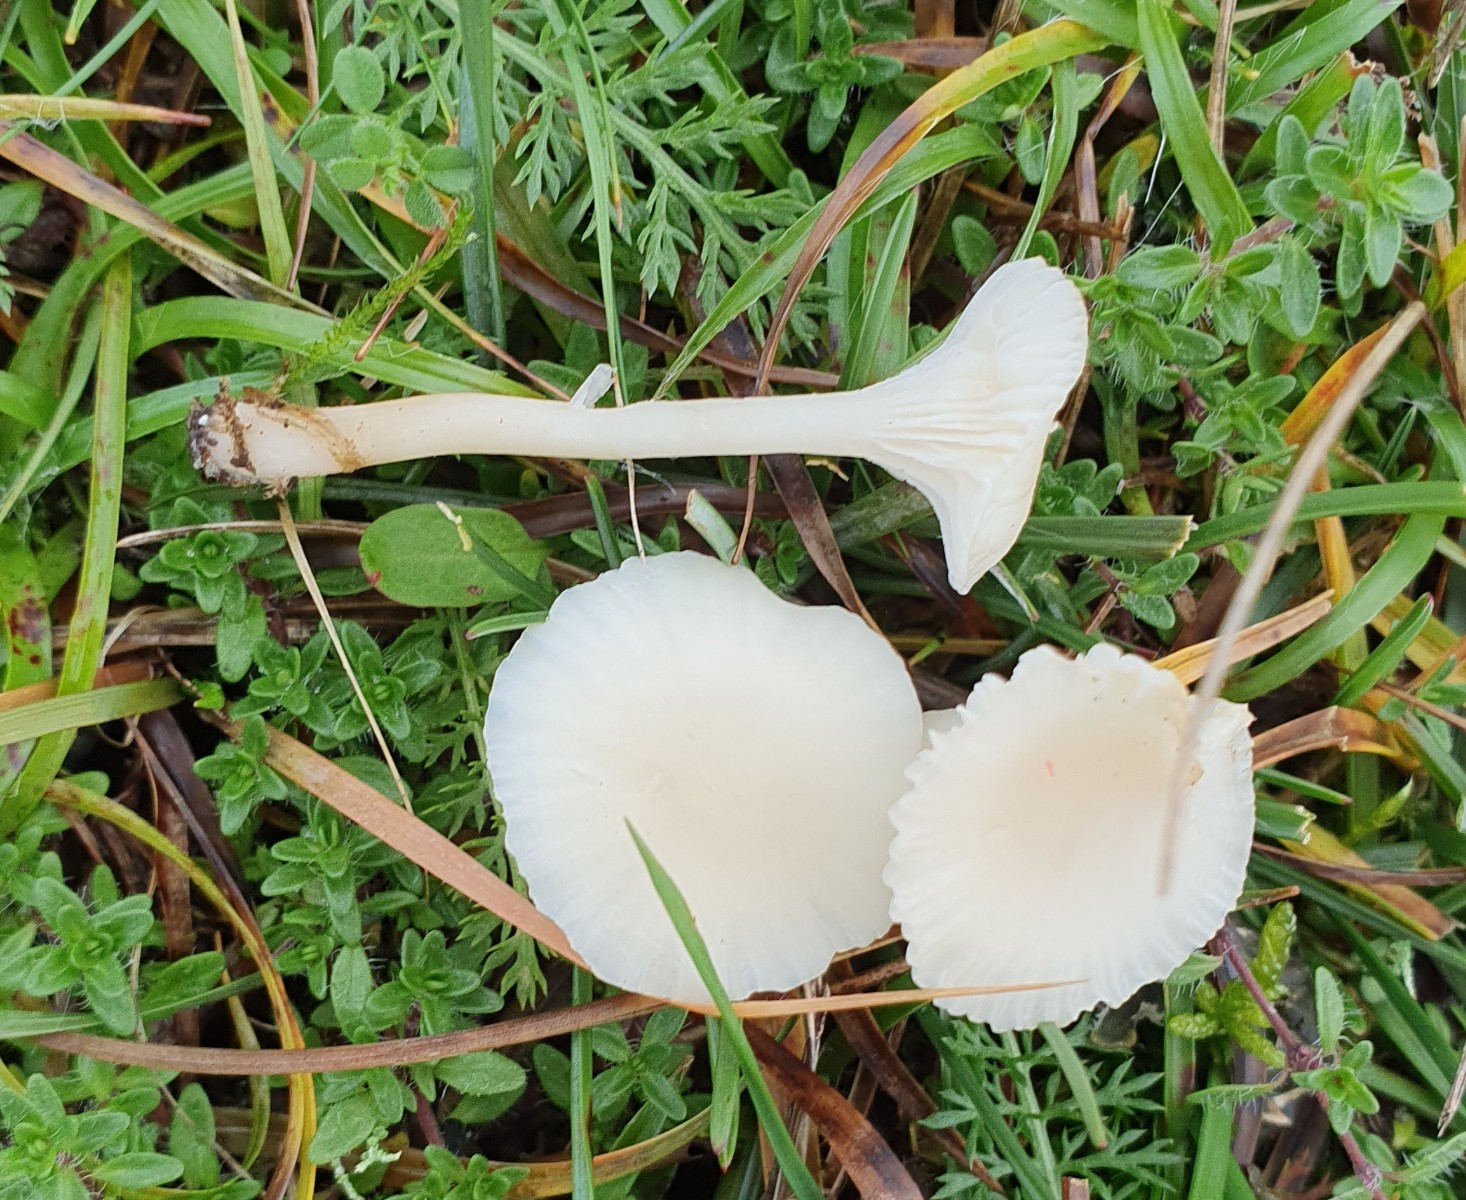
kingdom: Fungi
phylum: Basidiomycota
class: Agaricomycetes
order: Agaricales
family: Hygrophoraceae
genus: Cuphophyllus
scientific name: Cuphophyllus virgineus
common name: snehvid vokshat
